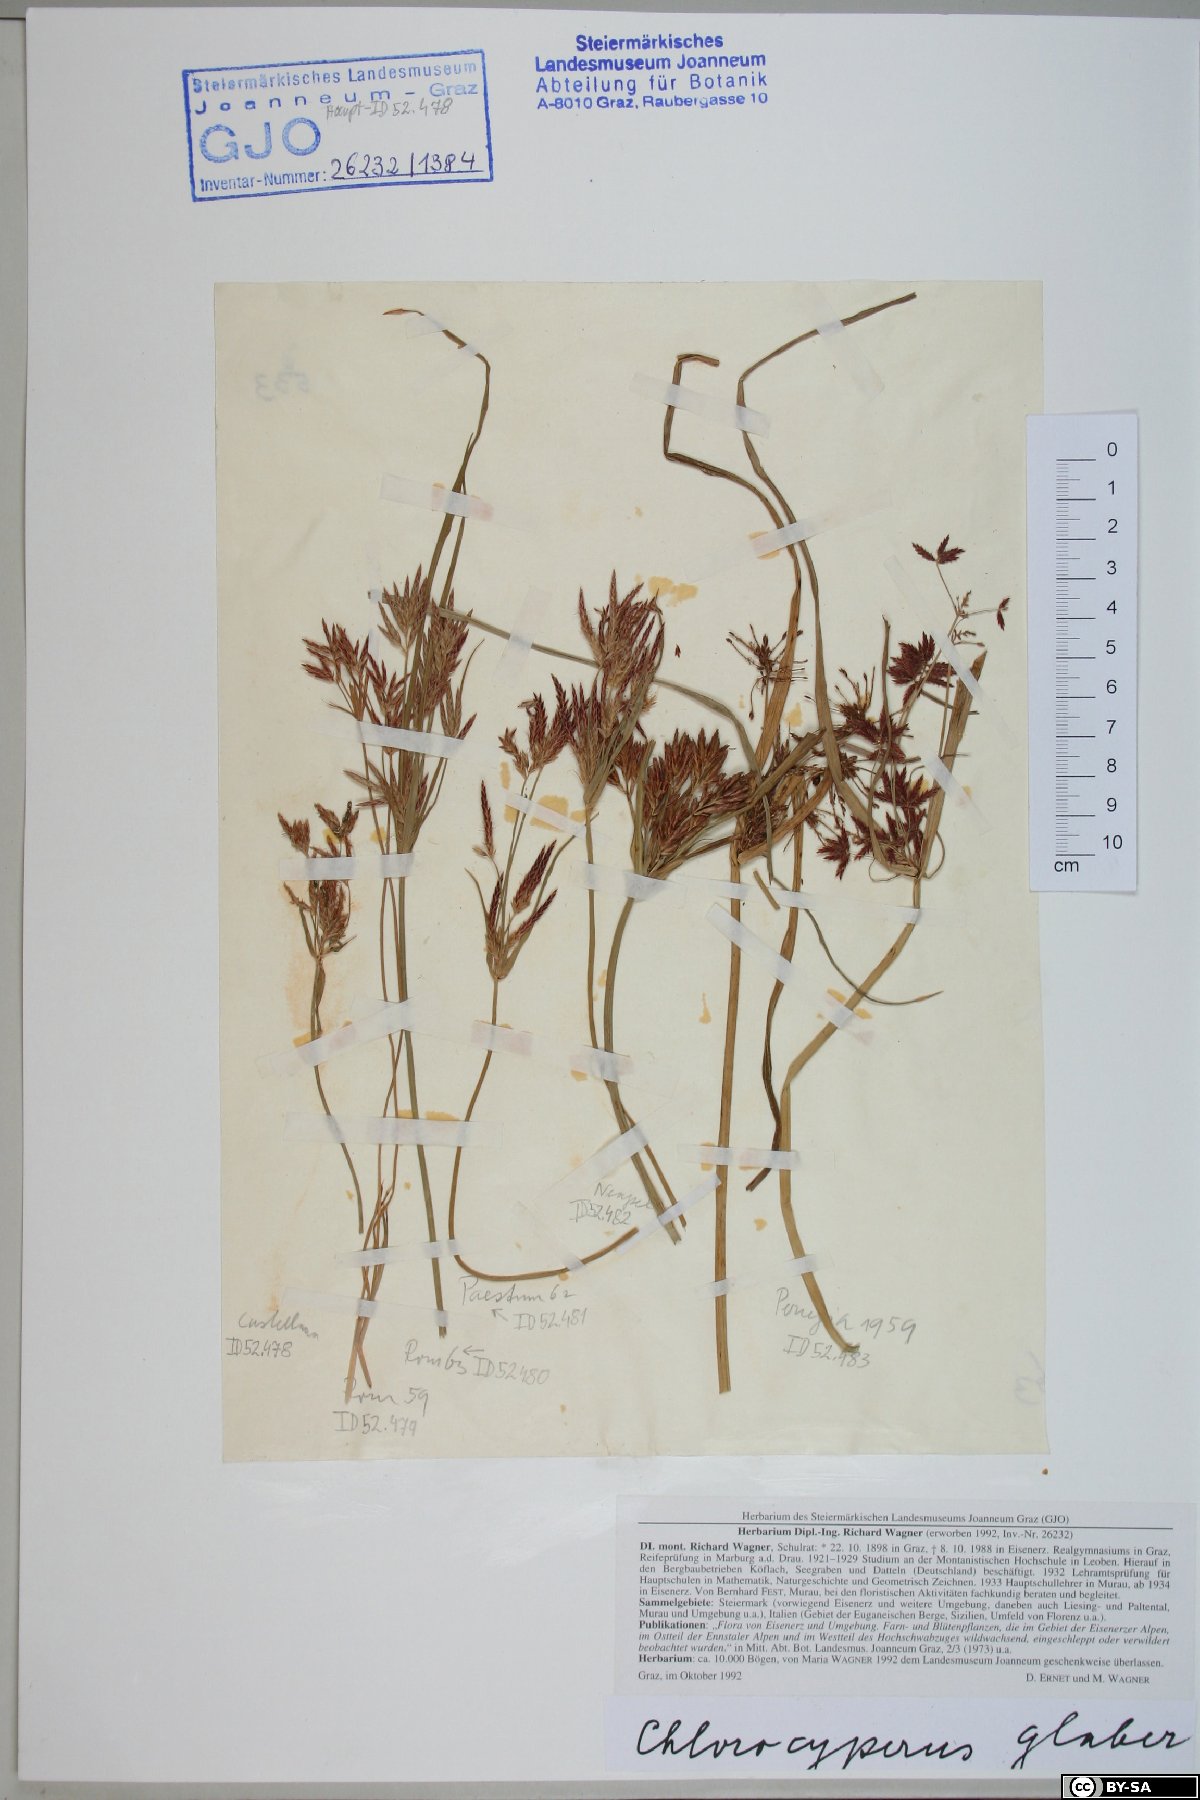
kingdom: Plantae
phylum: Tracheophyta
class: Liliopsida
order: Poales
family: Cyperaceae
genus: Cyperus
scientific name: Cyperus glaber
